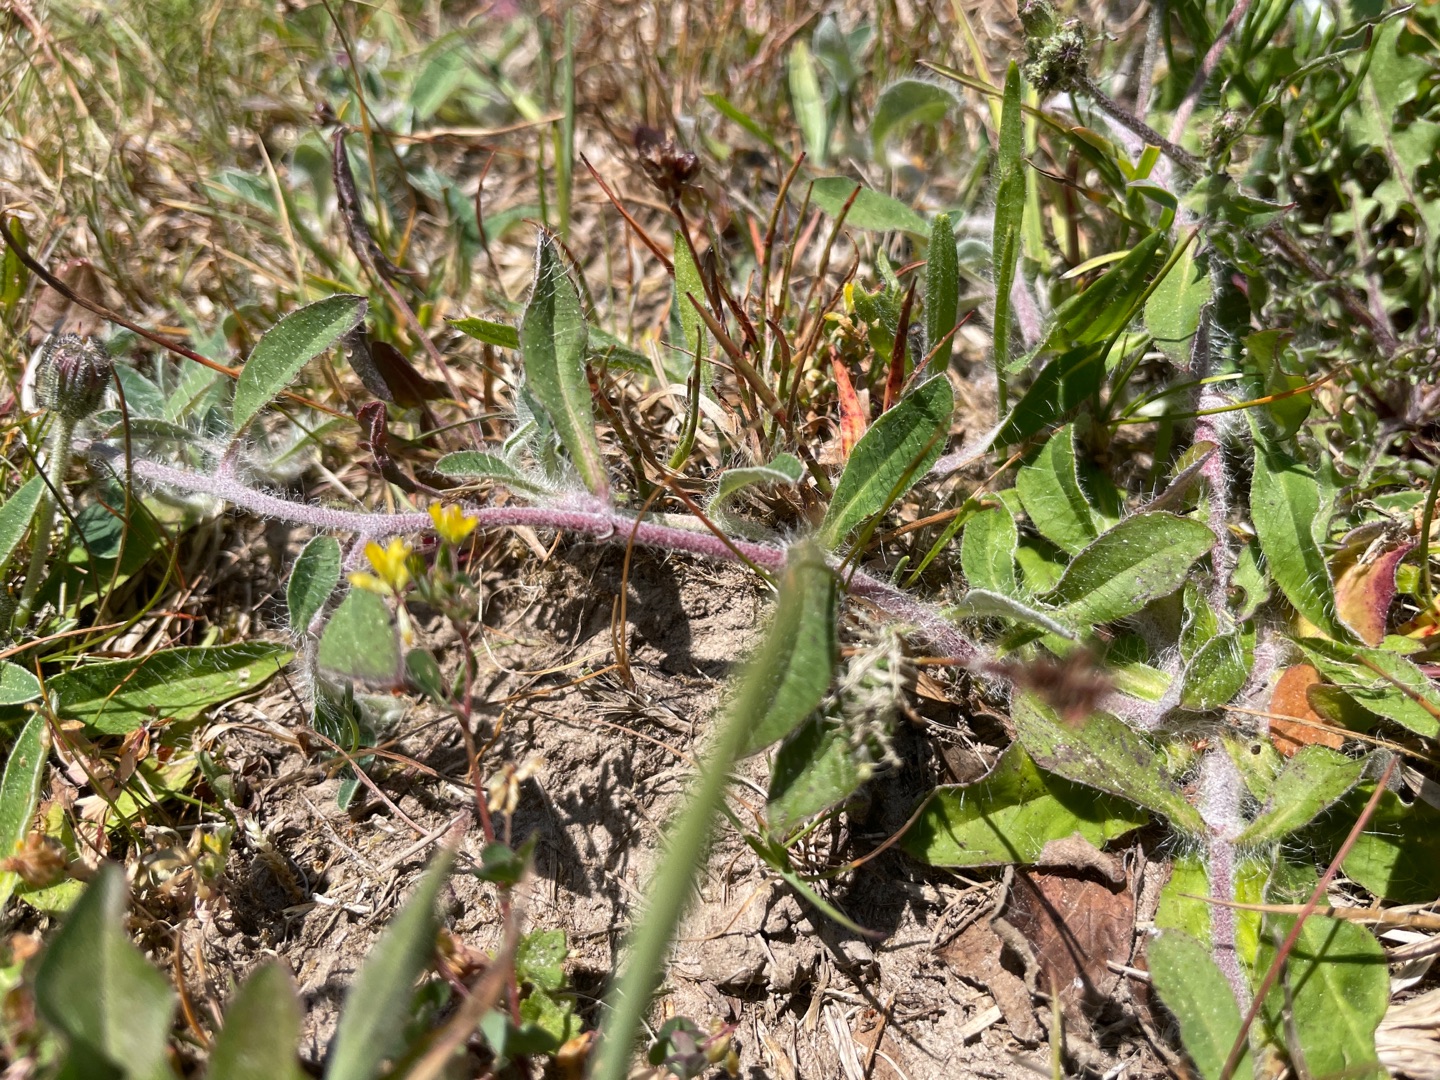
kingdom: Plantae
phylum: Tracheophyta
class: Magnoliopsida
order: Asterales
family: Asteraceae
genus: Pilosella
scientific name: Pilosella officinarum
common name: Håret høgeurt
